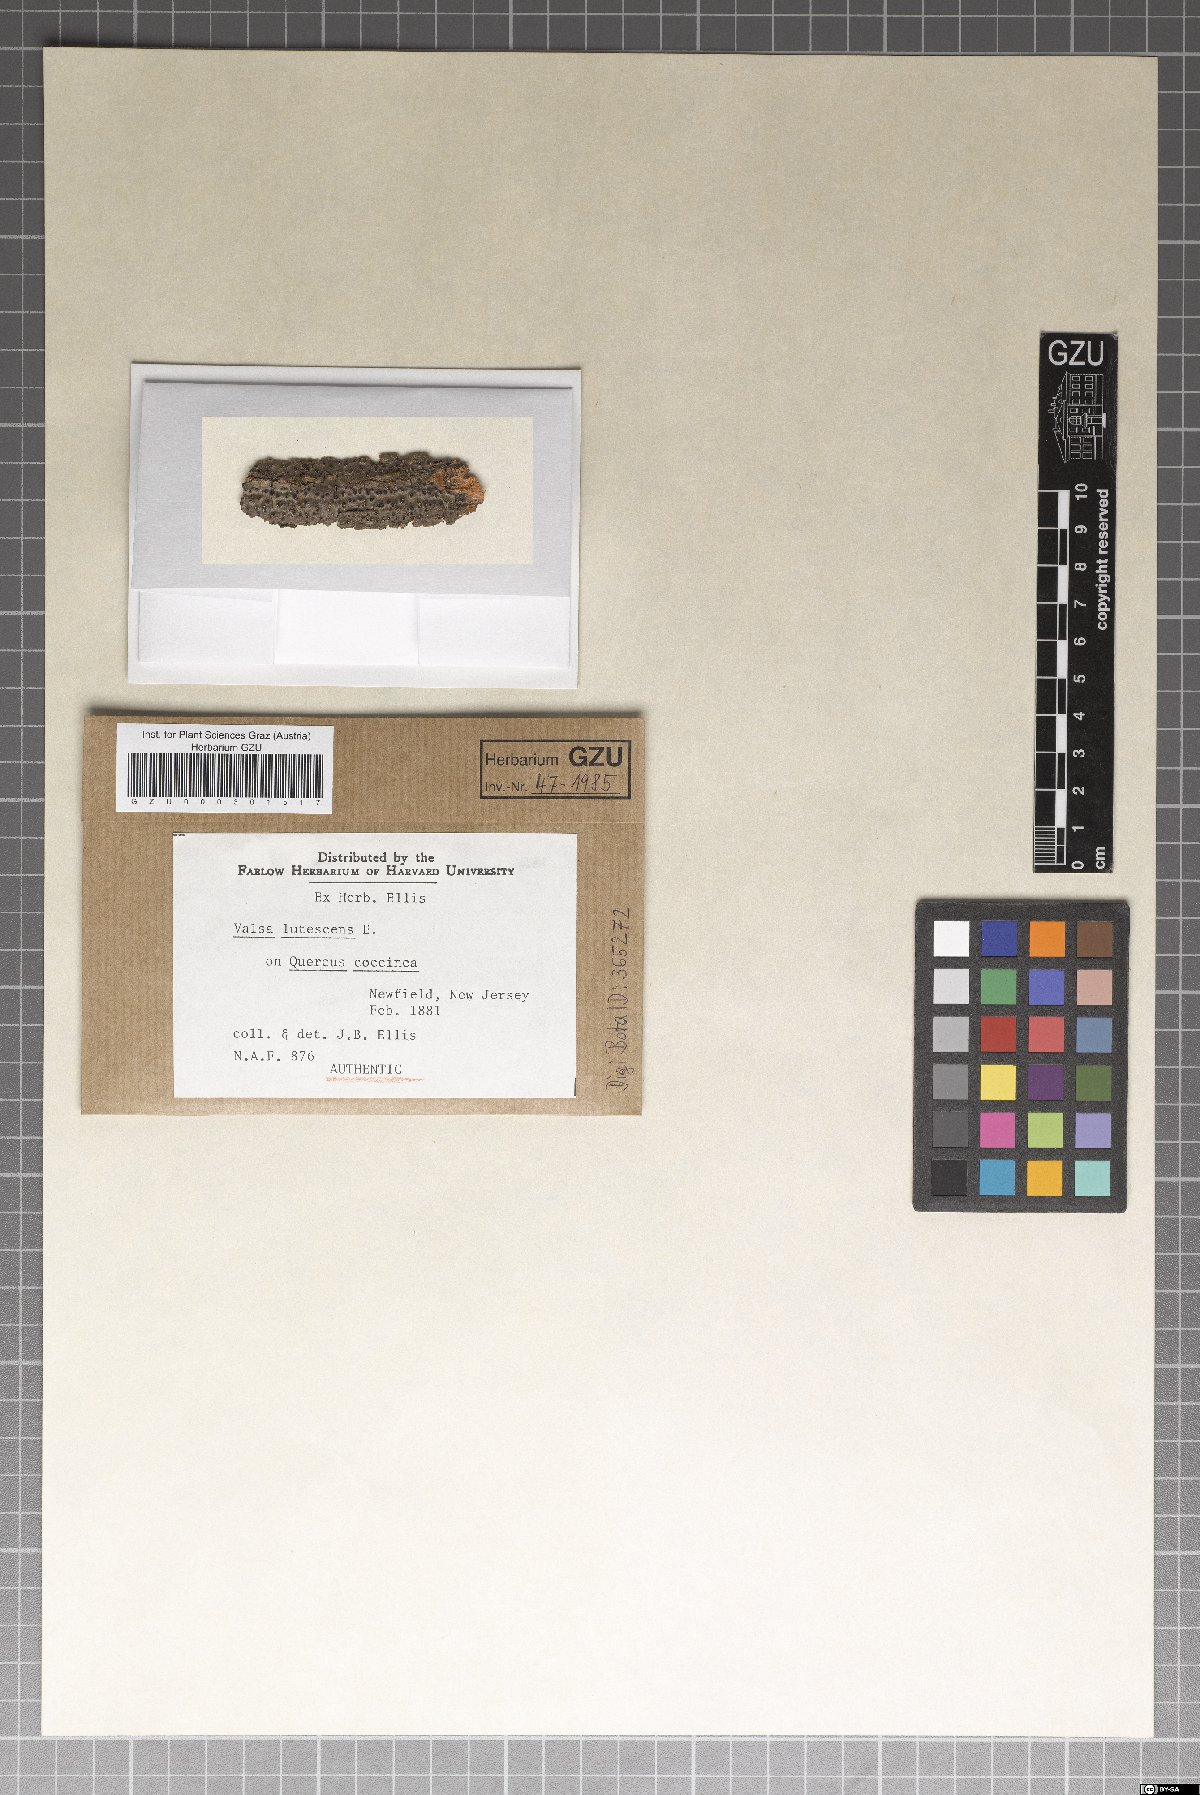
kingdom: Fungi
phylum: Ascomycota
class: Sordariomycetes
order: Diaporthales
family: Valsaceae
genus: Valsa
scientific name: Valsa
